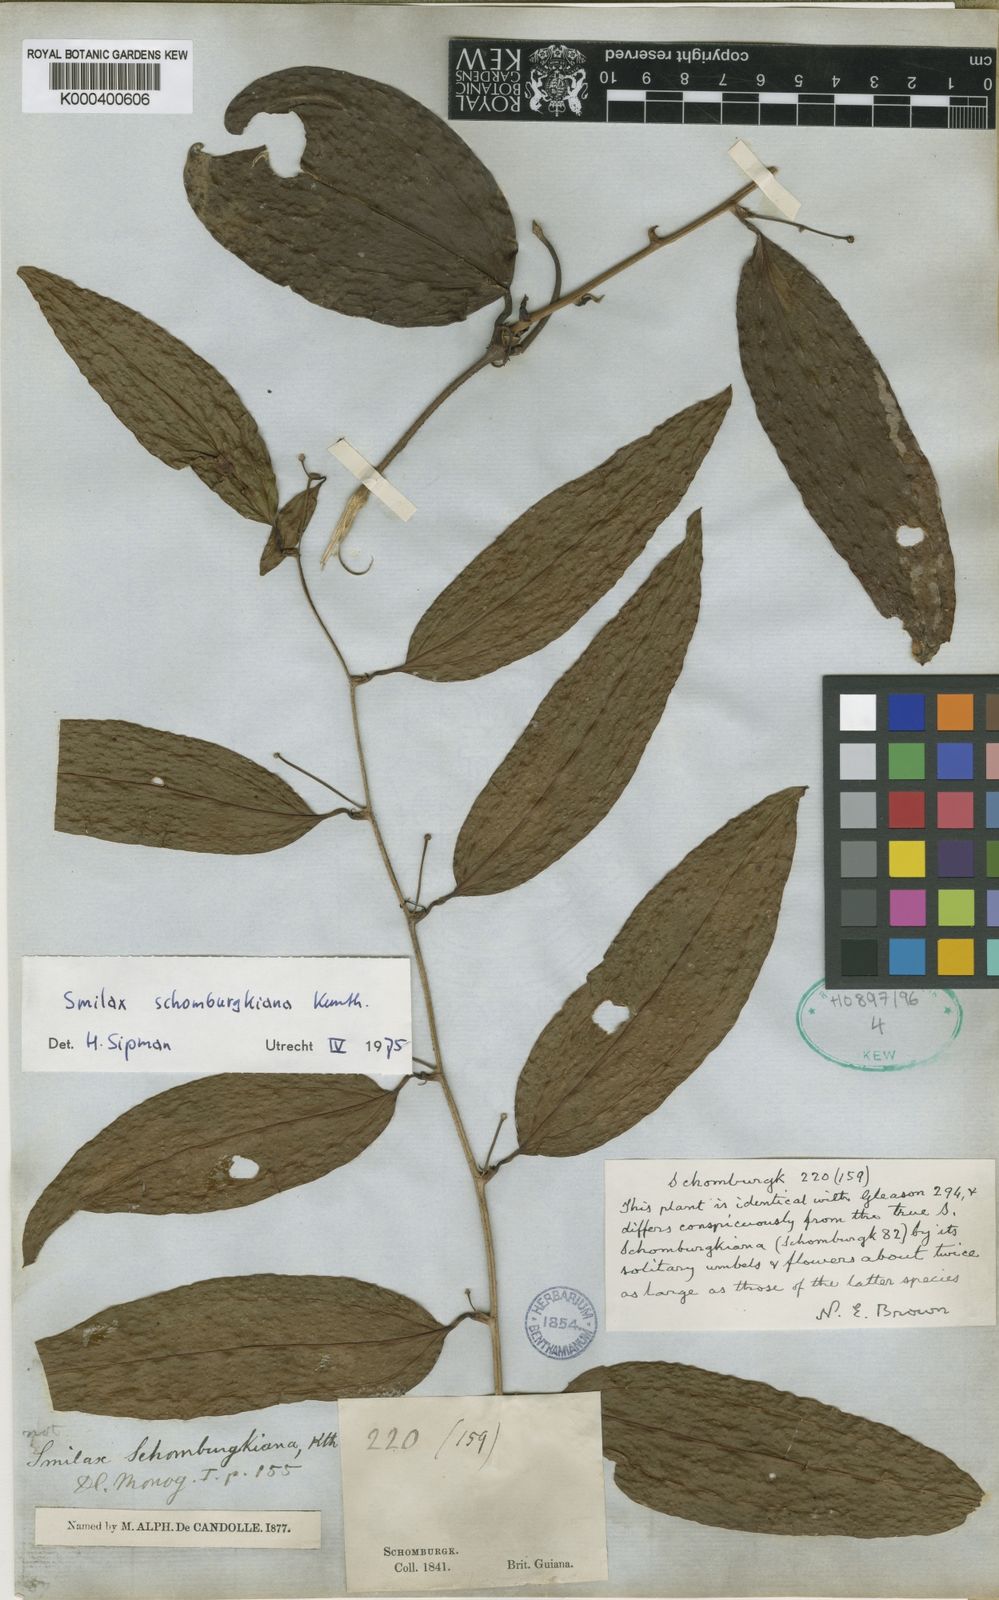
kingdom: Plantae
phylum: Tracheophyta
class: Liliopsida
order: Liliales
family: Smilacaceae
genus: Smilax
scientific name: Smilax schomburgkiana
